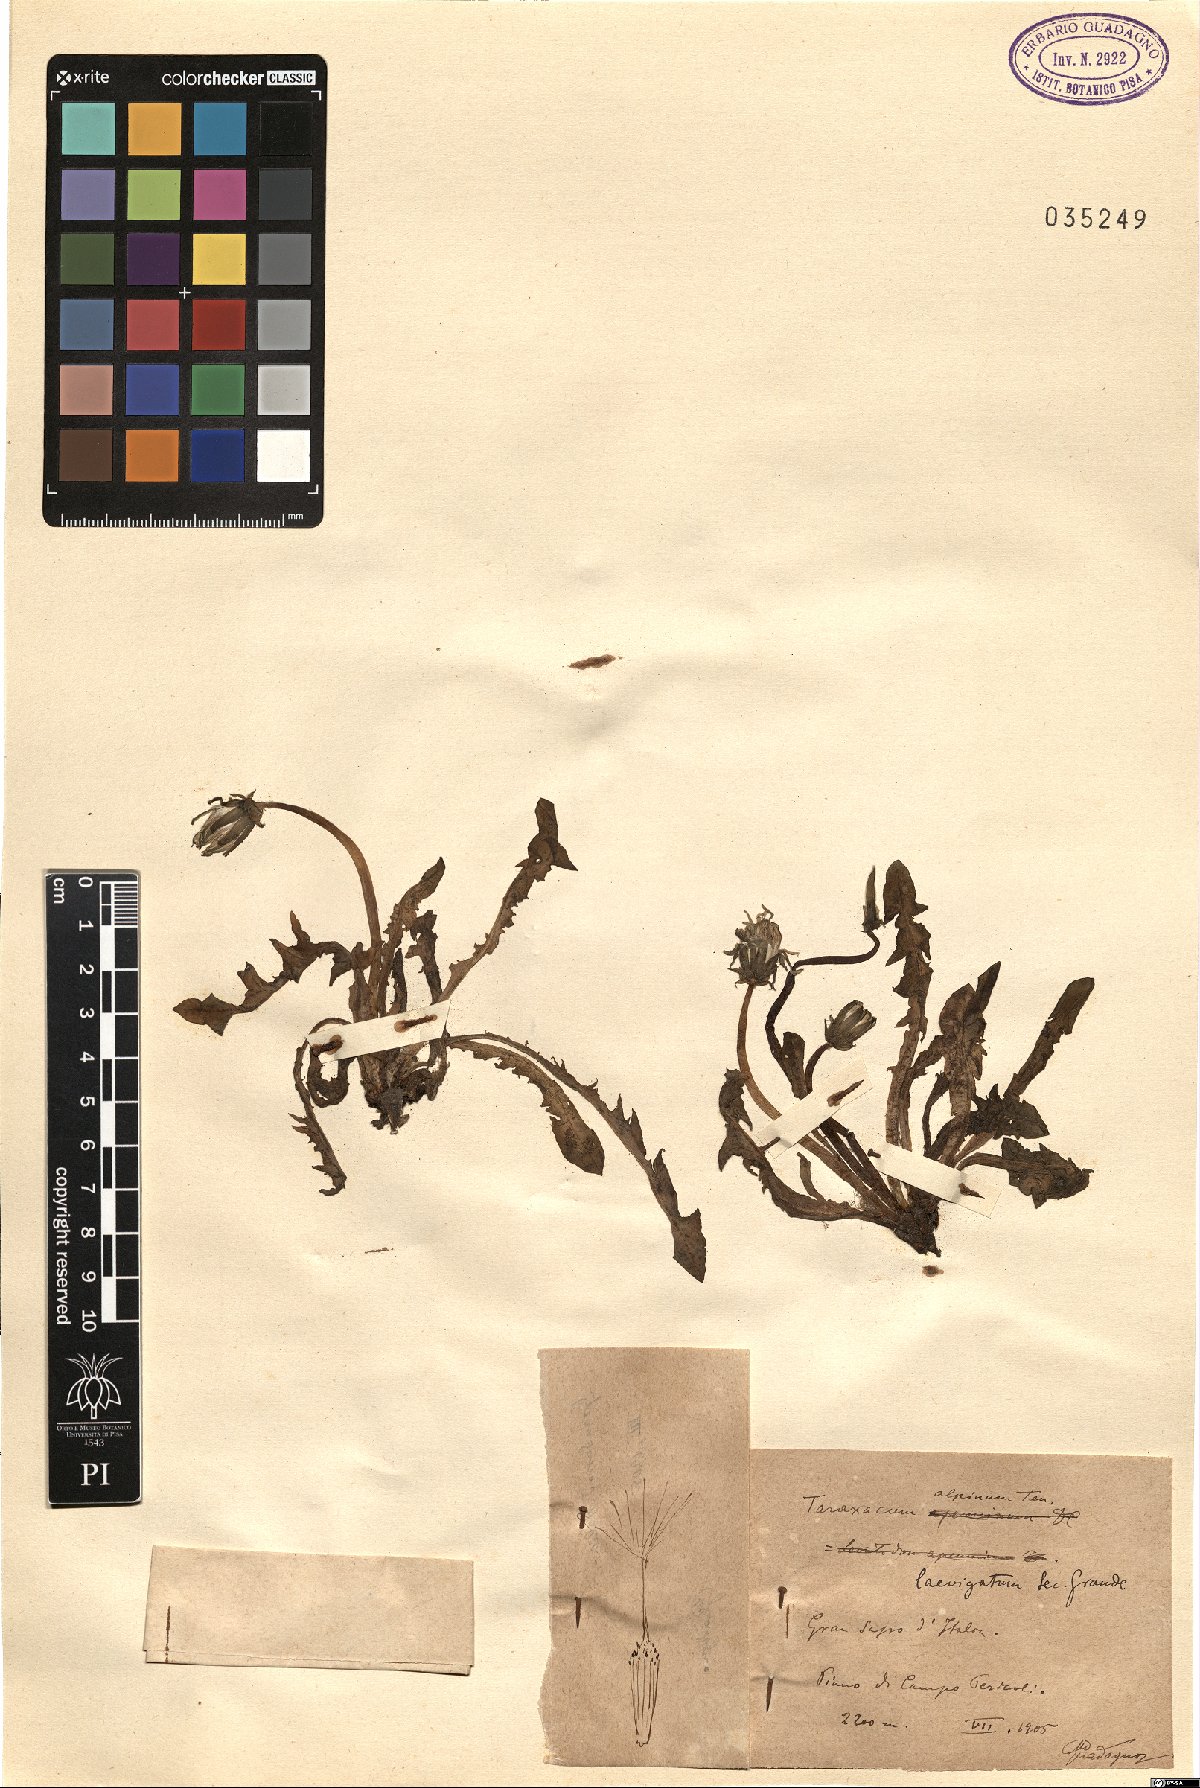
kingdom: Plantae
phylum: Tracheophyta
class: Magnoliopsida
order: Asterales
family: Asteraceae
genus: Taraxacum
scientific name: Taraxacum alpinum
